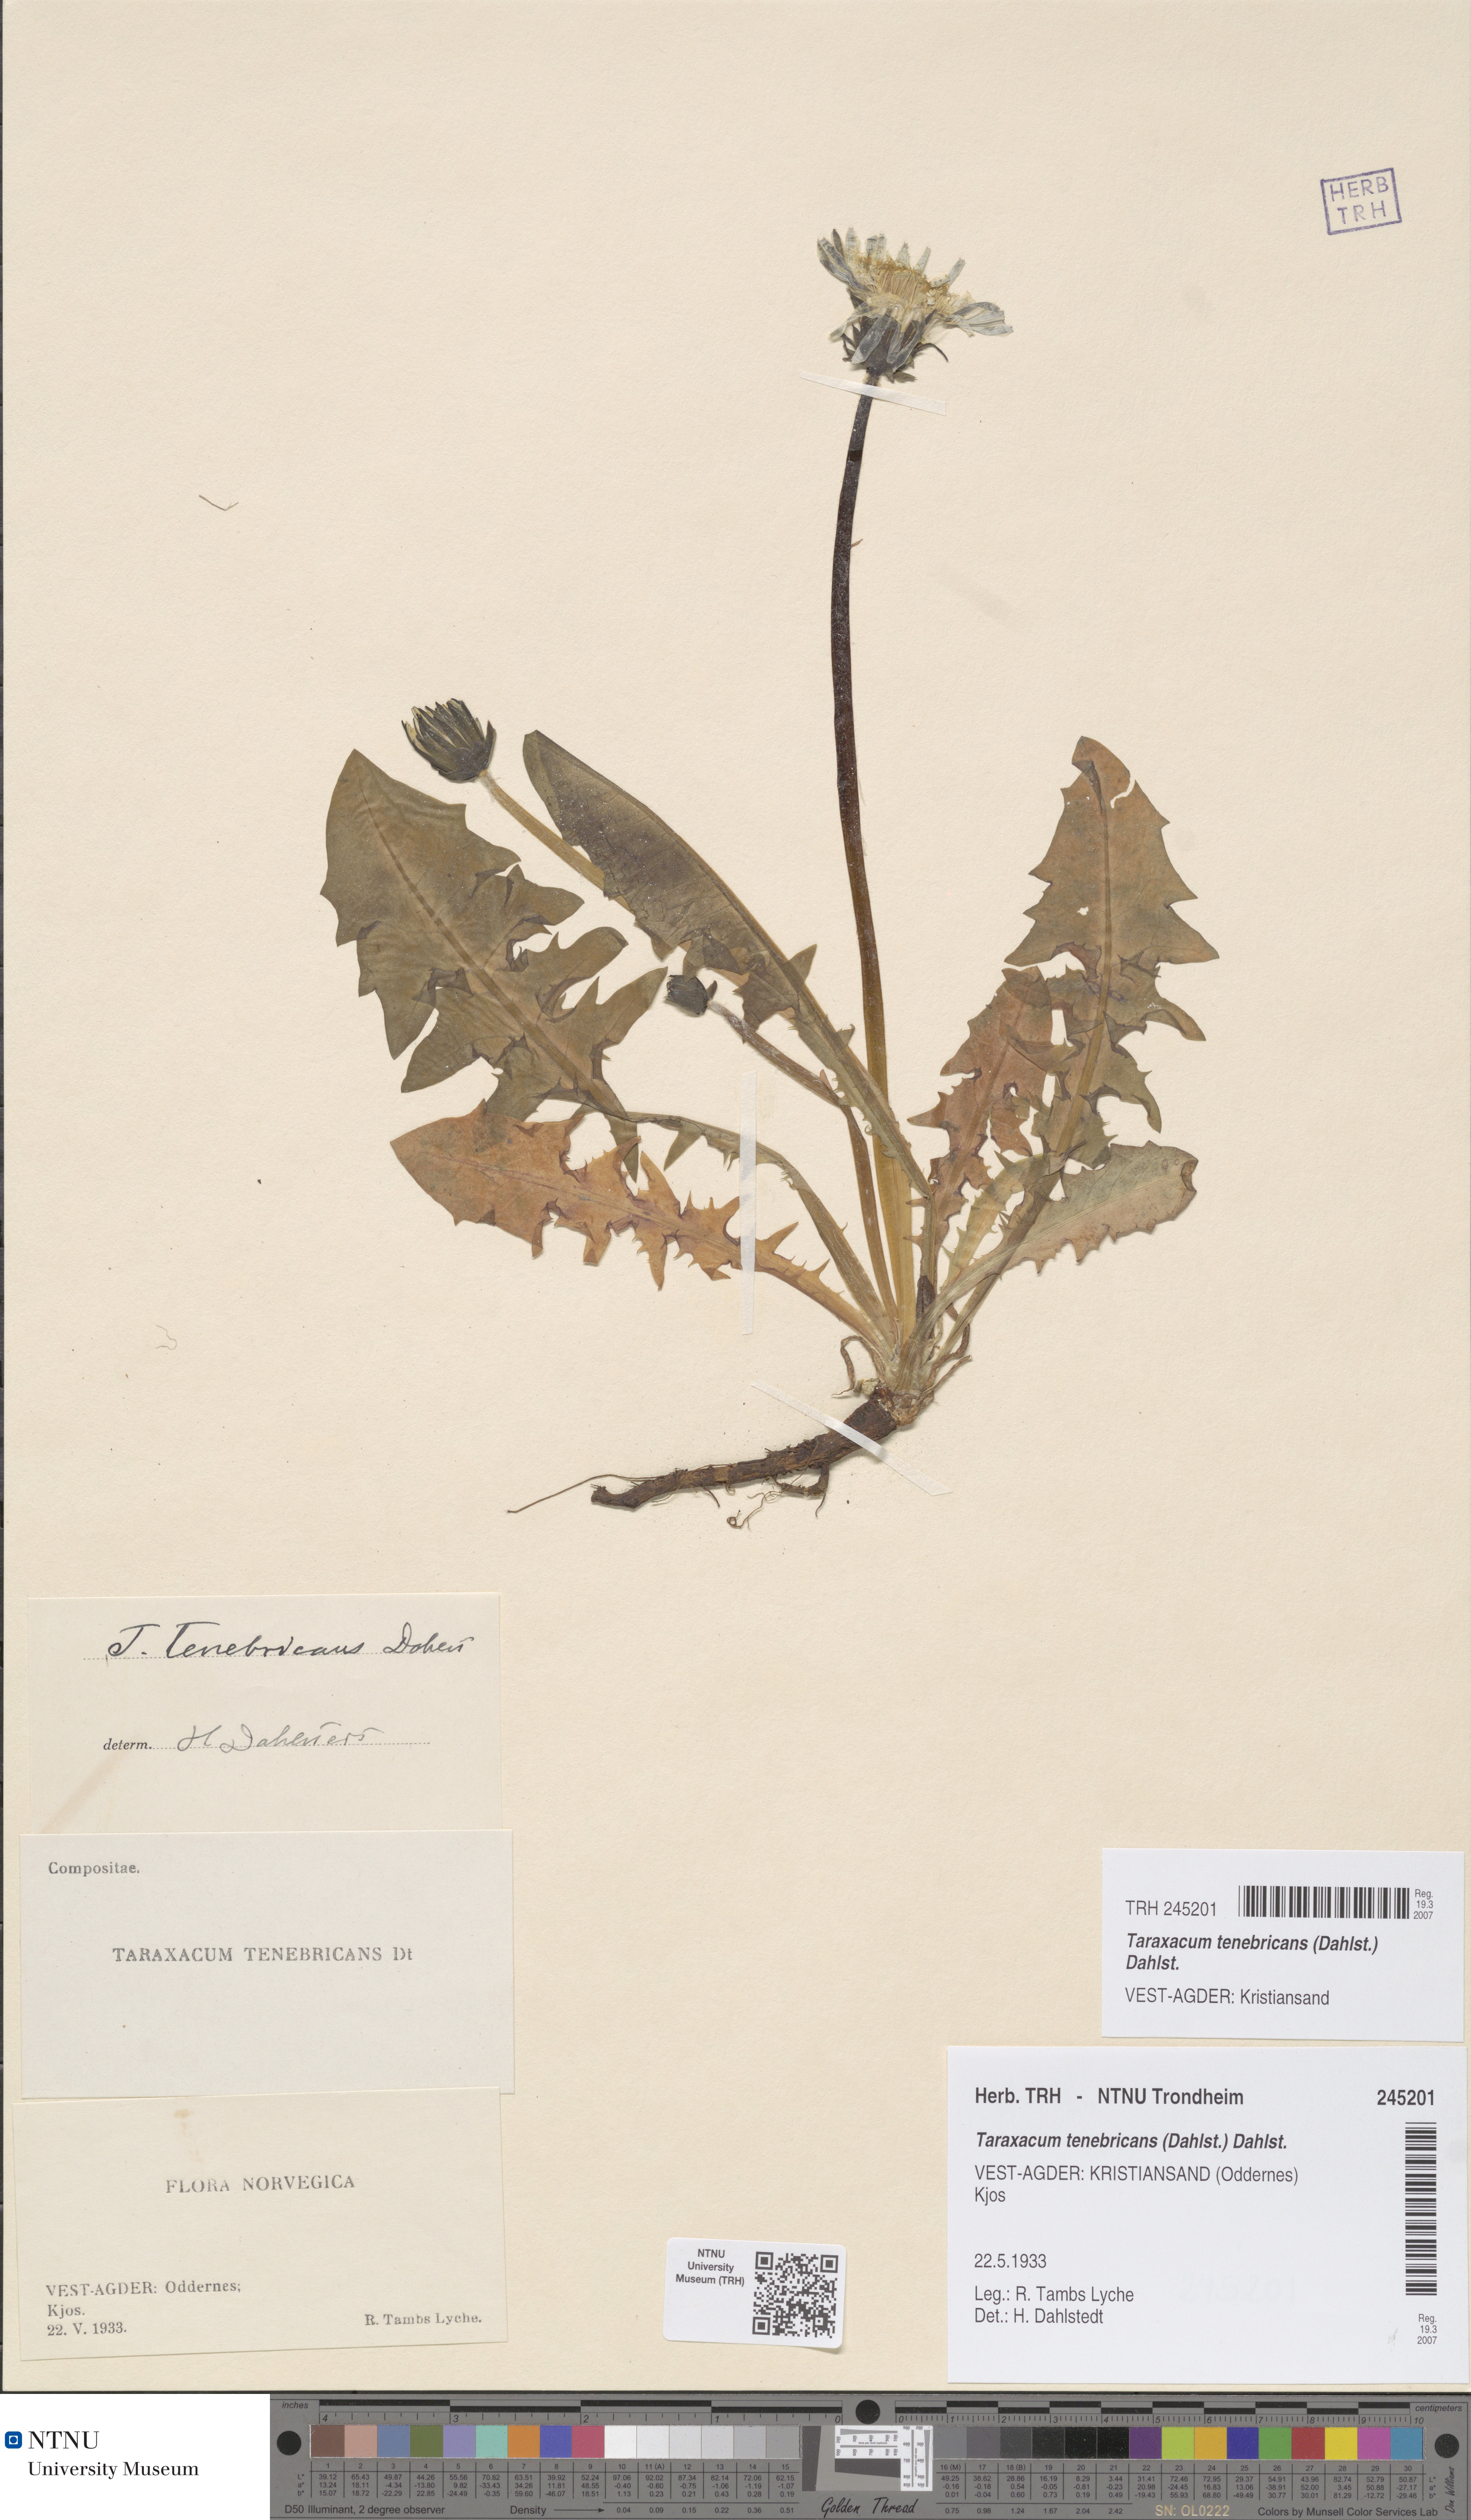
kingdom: Plantae
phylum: Tracheophyta
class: Magnoliopsida
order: Asterales
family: Asteraceae
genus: Taraxacum
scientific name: Taraxacum tenebricans
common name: Shiny-leaved dandelion
